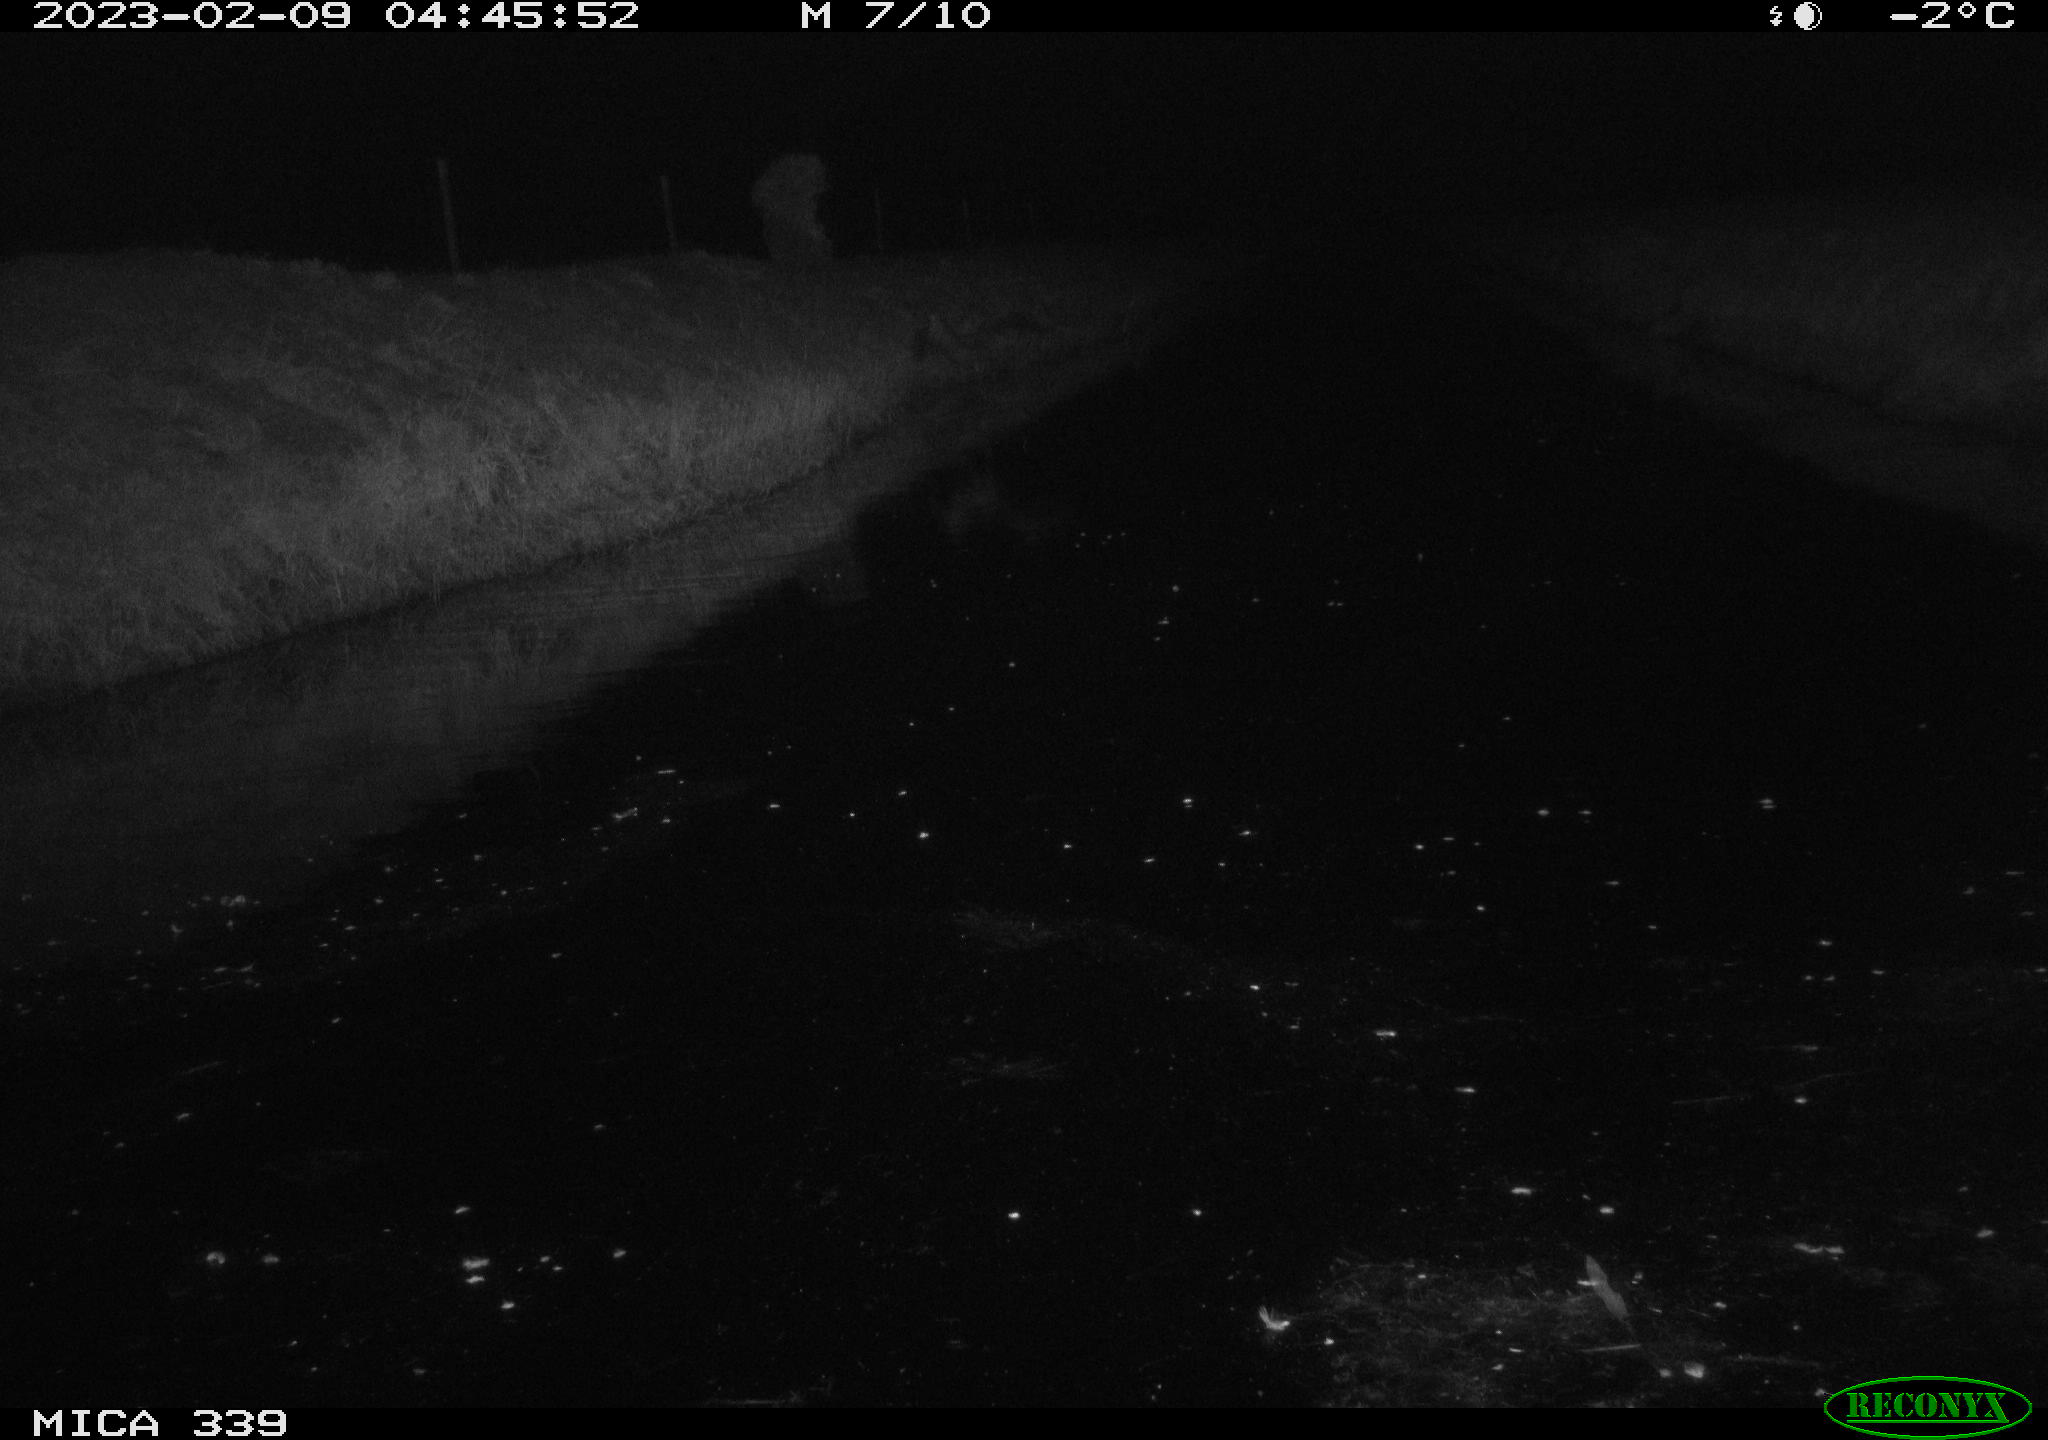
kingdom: Animalia
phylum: Chordata
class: Aves
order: Pelecaniformes
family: Ardeidae
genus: Ardea
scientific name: Ardea cinerea
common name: Grey heron
